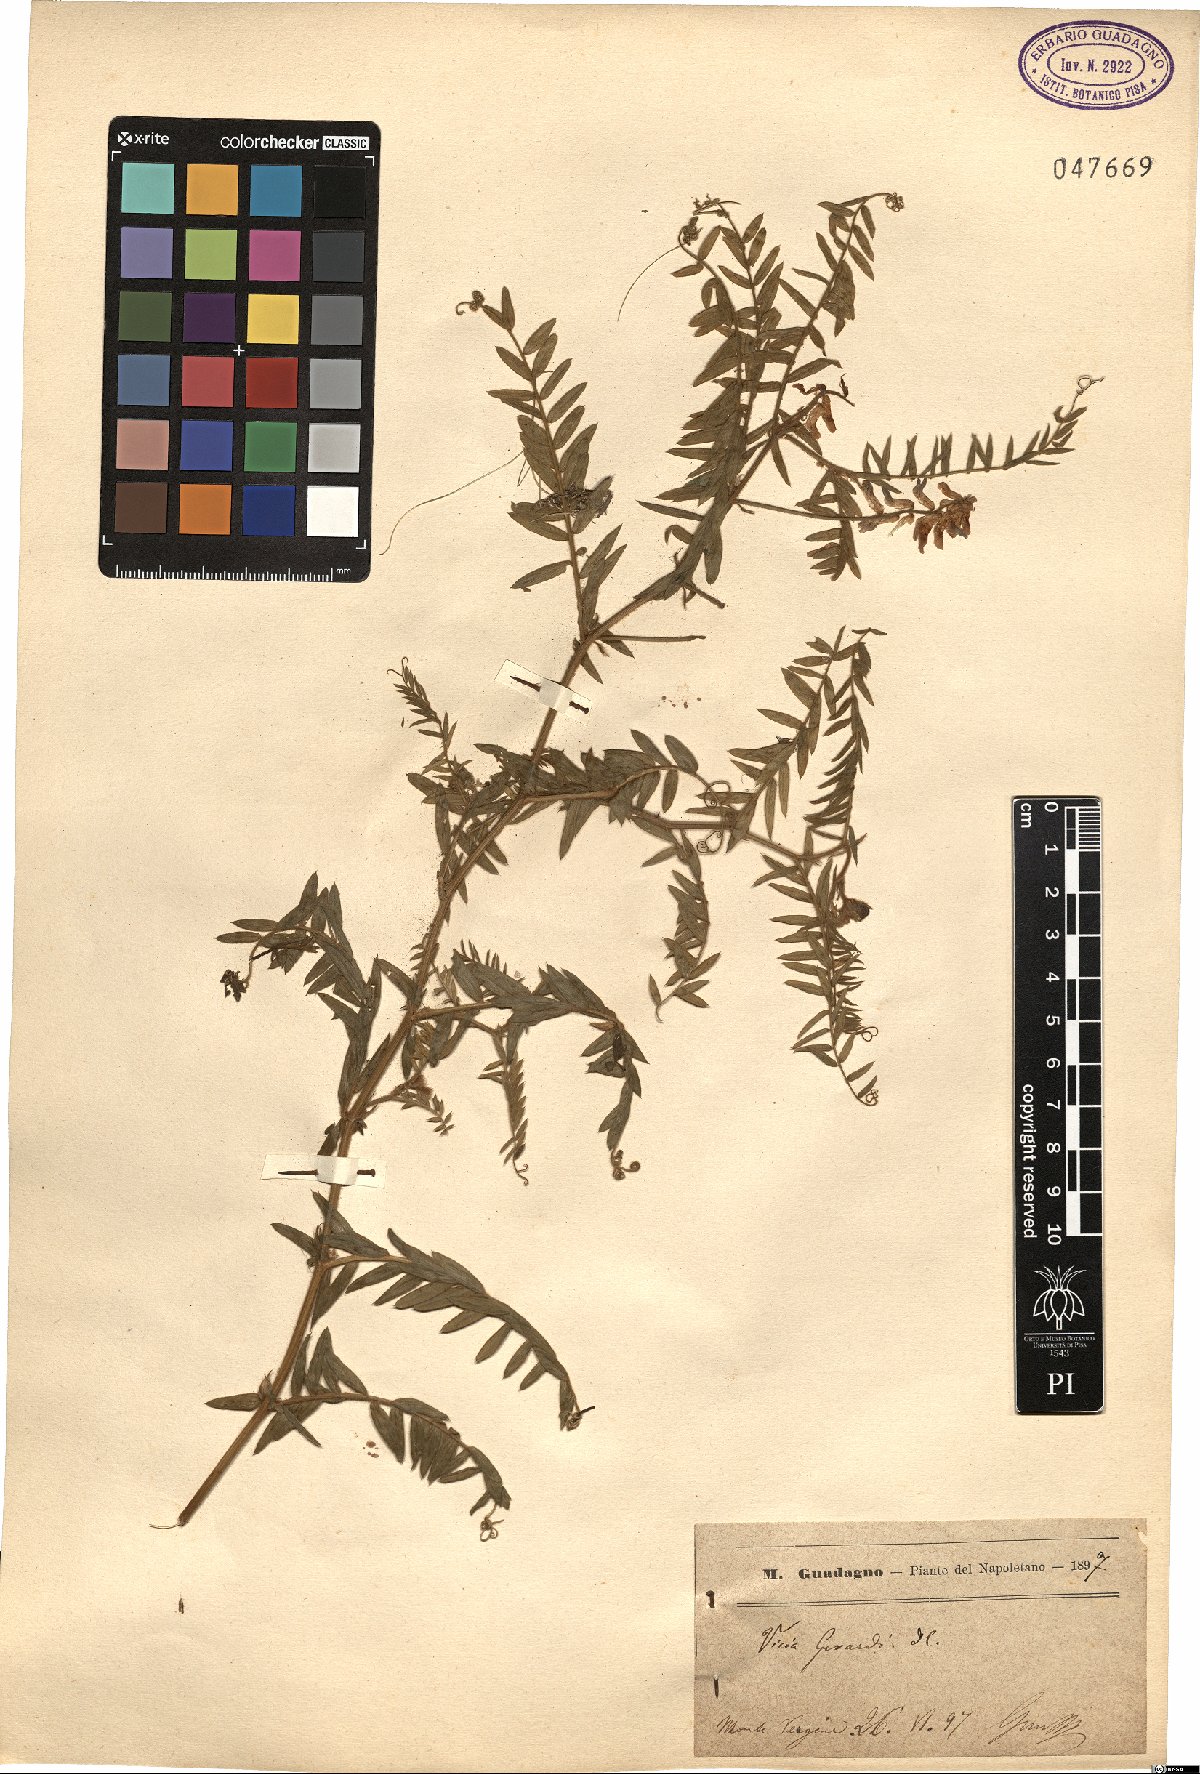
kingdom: Plantae
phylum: Tracheophyta
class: Magnoliopsida
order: Fabales
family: Fabaceae
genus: Vicia
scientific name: Vicia cracca
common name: Bird vetch
